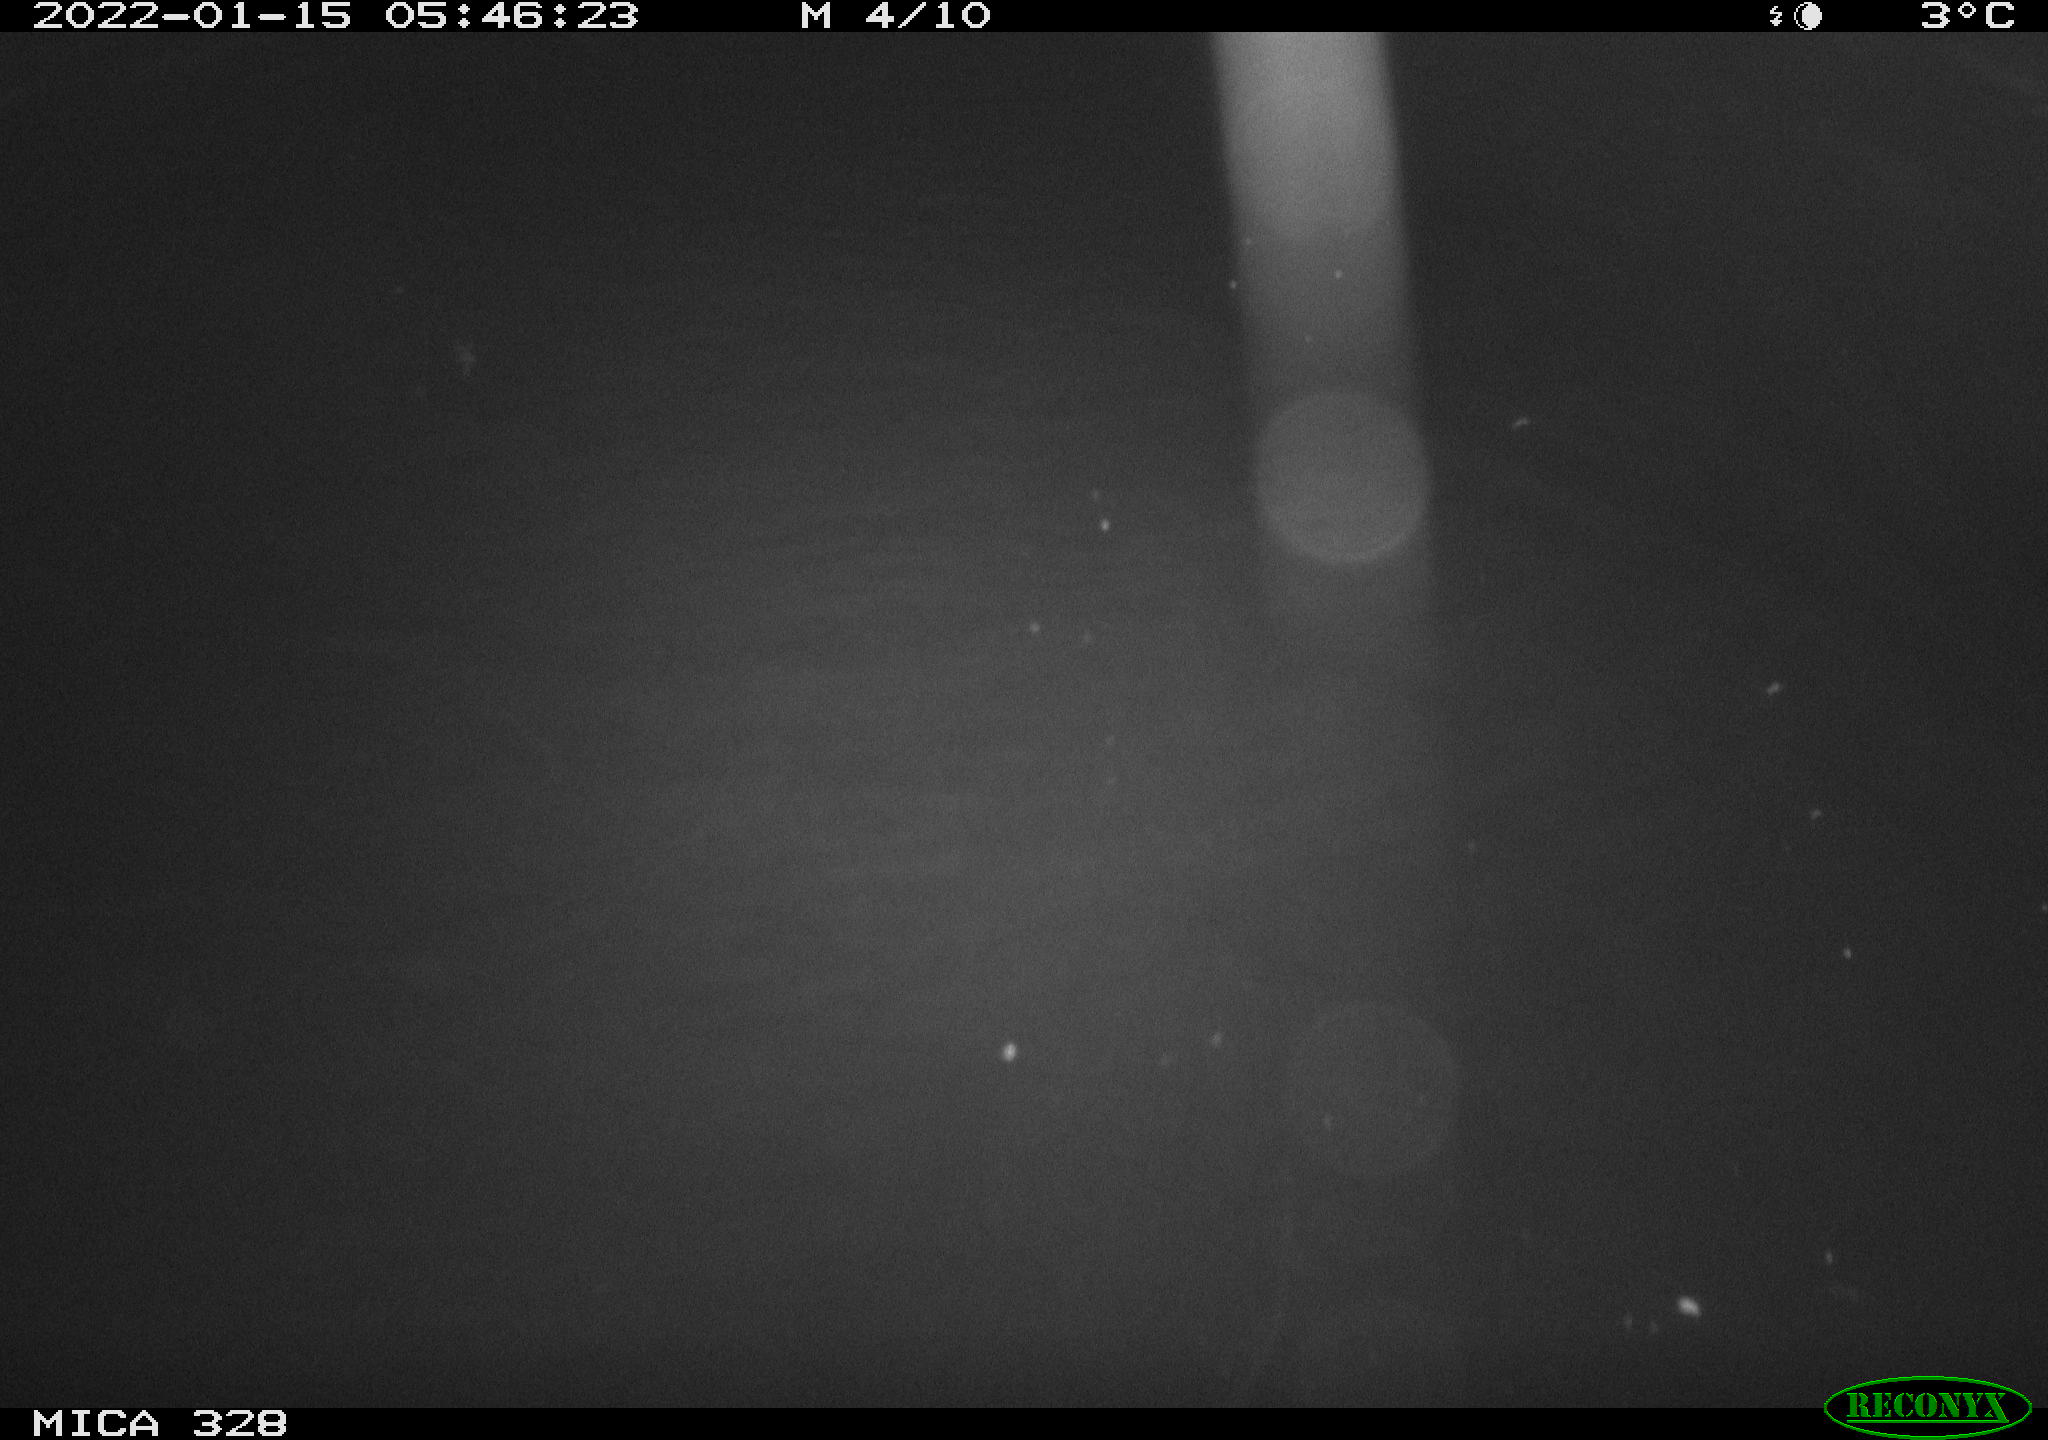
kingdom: Animalia
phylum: Chordata
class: Mammalia
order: Rodentia
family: Cricetidae
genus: Ondatra
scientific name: Ondatra zibethicus
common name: Muskrat
